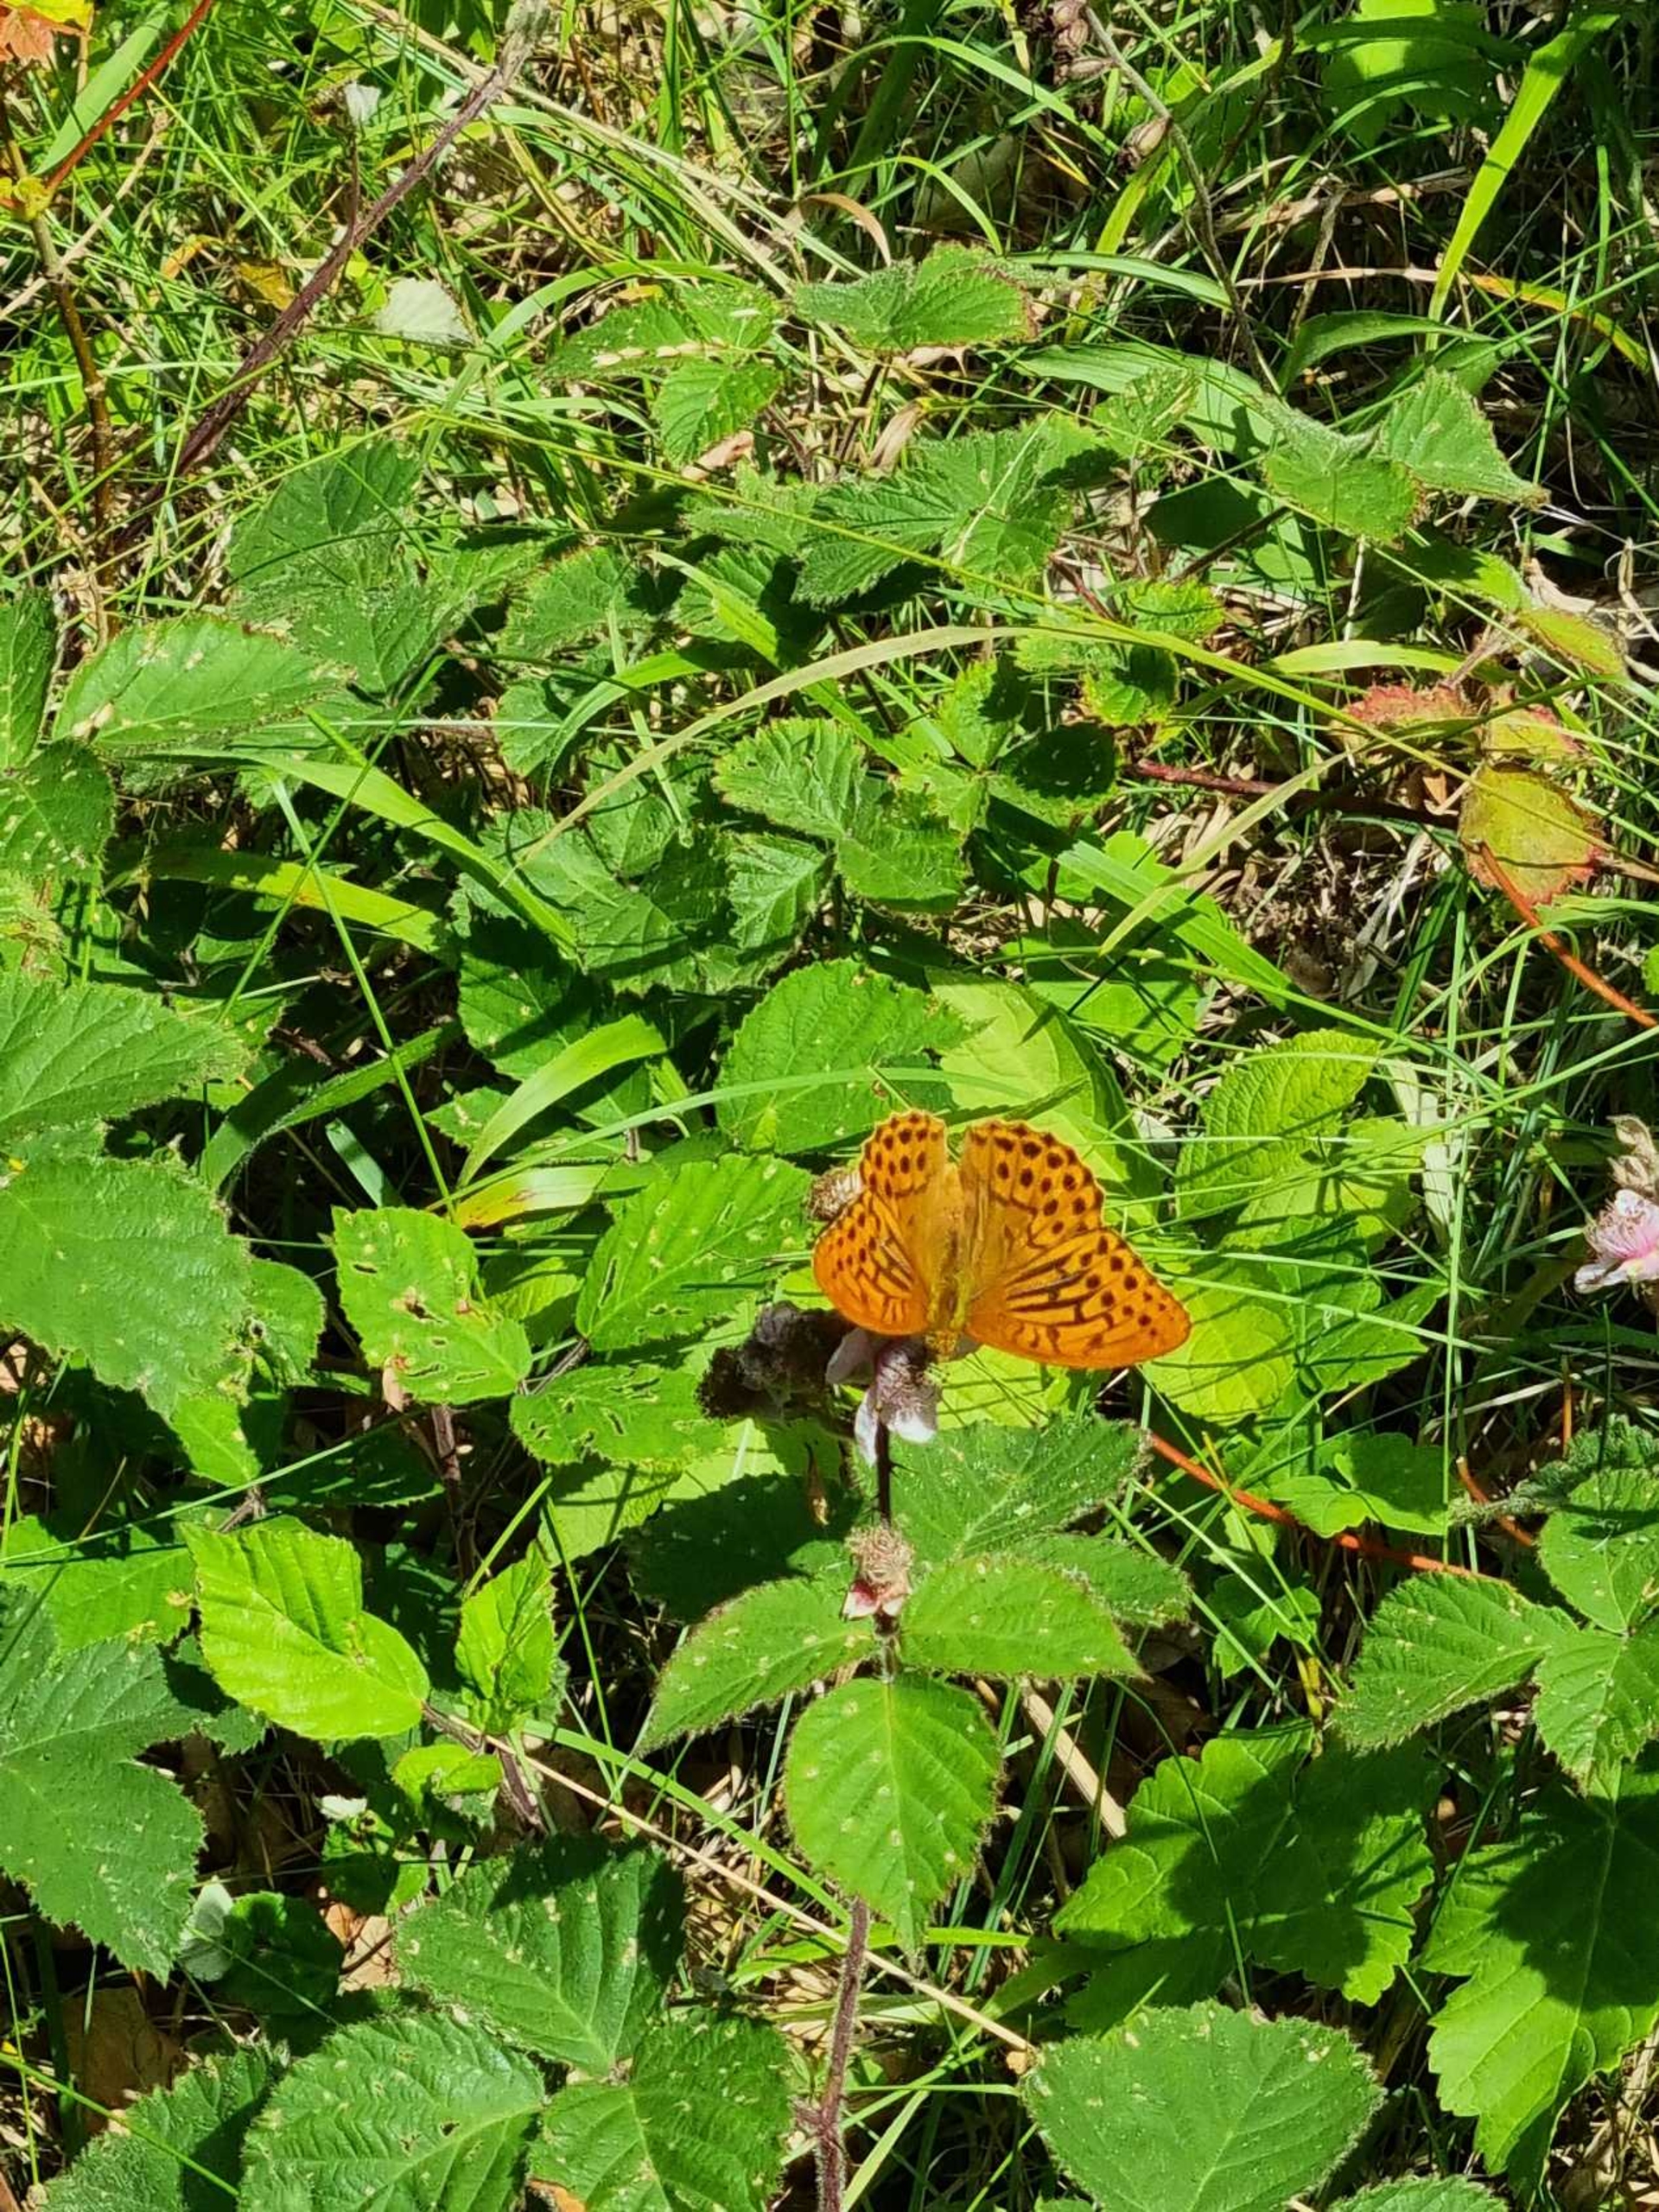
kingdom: Animalia
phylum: Arthropoda
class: Insecta
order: Lepidoptera
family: Nymphalidae
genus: Argynnis
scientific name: Argynnis paphia
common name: Kejserkåbe
